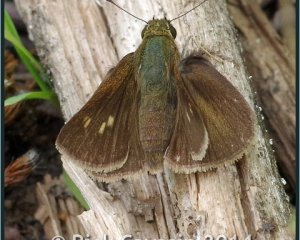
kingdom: Animalia
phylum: Arthropoda
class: Insecta
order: Lepidoptera
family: Hesperiidae
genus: Polites
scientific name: Polites egeremet
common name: Northern Broken-Dash
